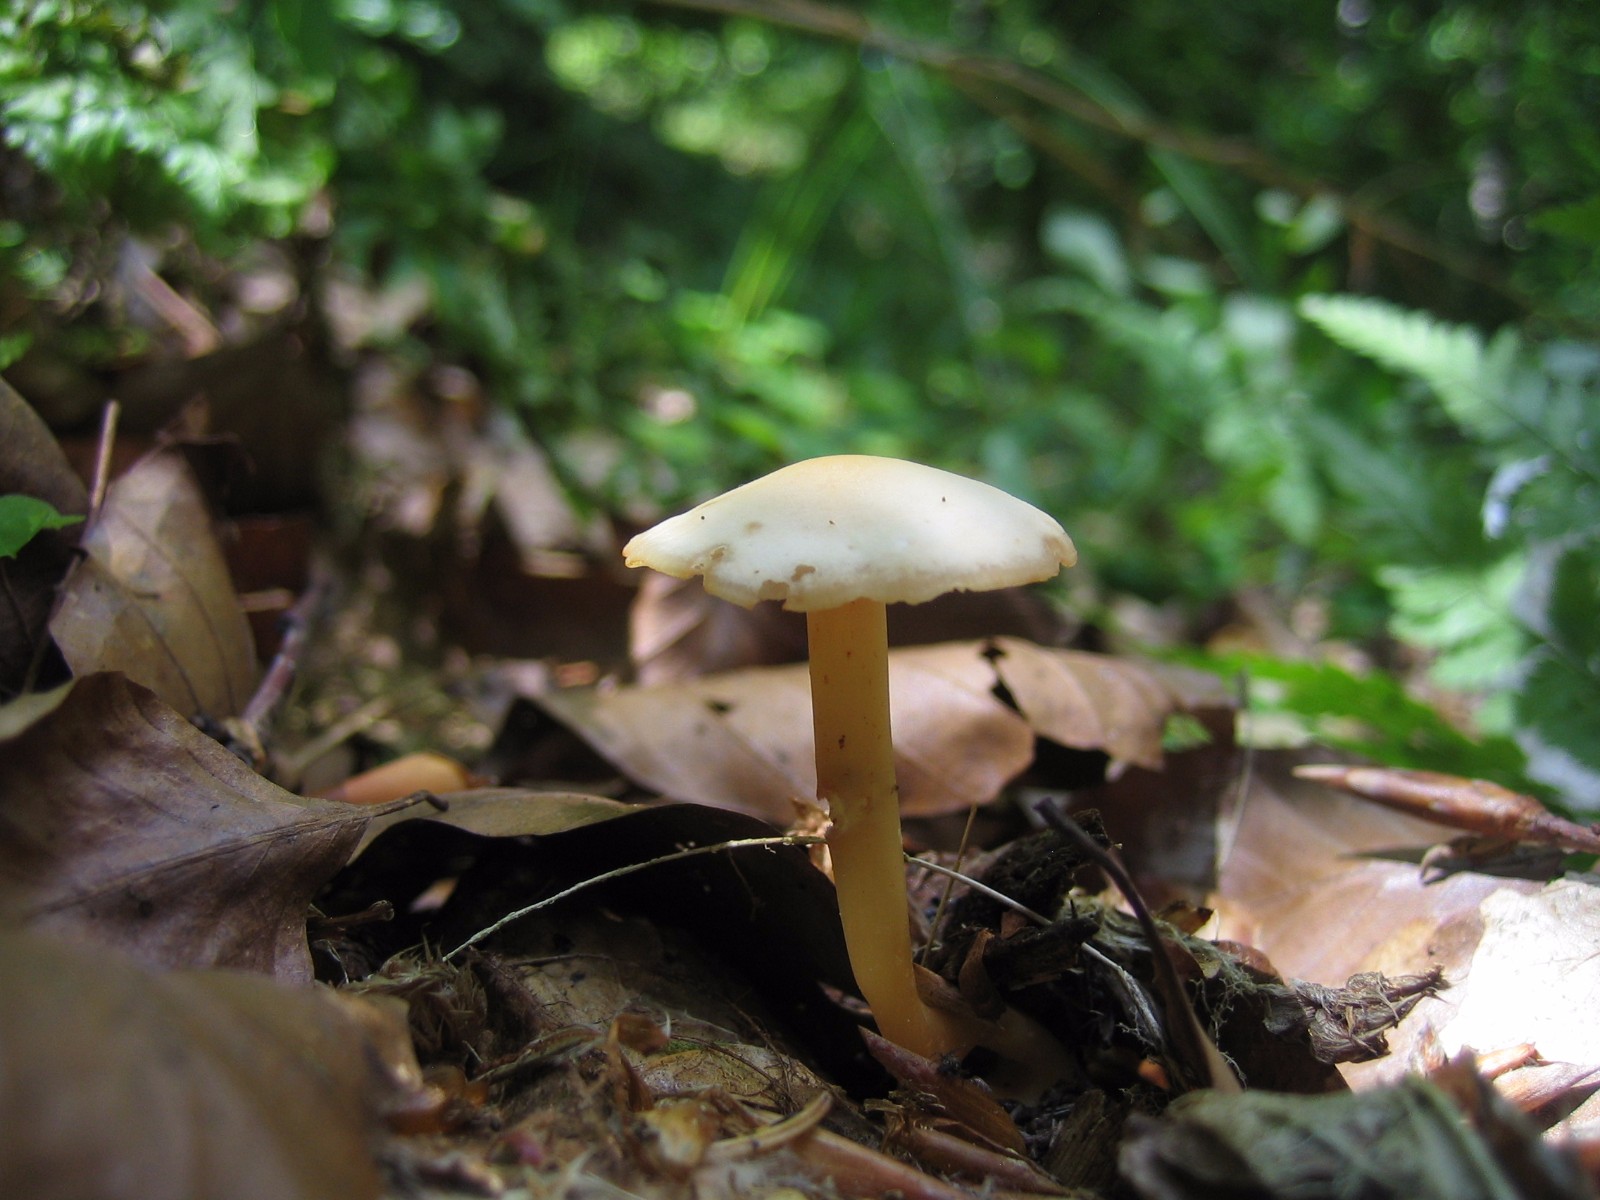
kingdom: Fungi
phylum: Basidiomycota
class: Agaricomycetes
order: Agaricales
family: Omphalotaceae
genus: Gymnopus
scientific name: Gymnopus aquosus
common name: bleg fladhat
